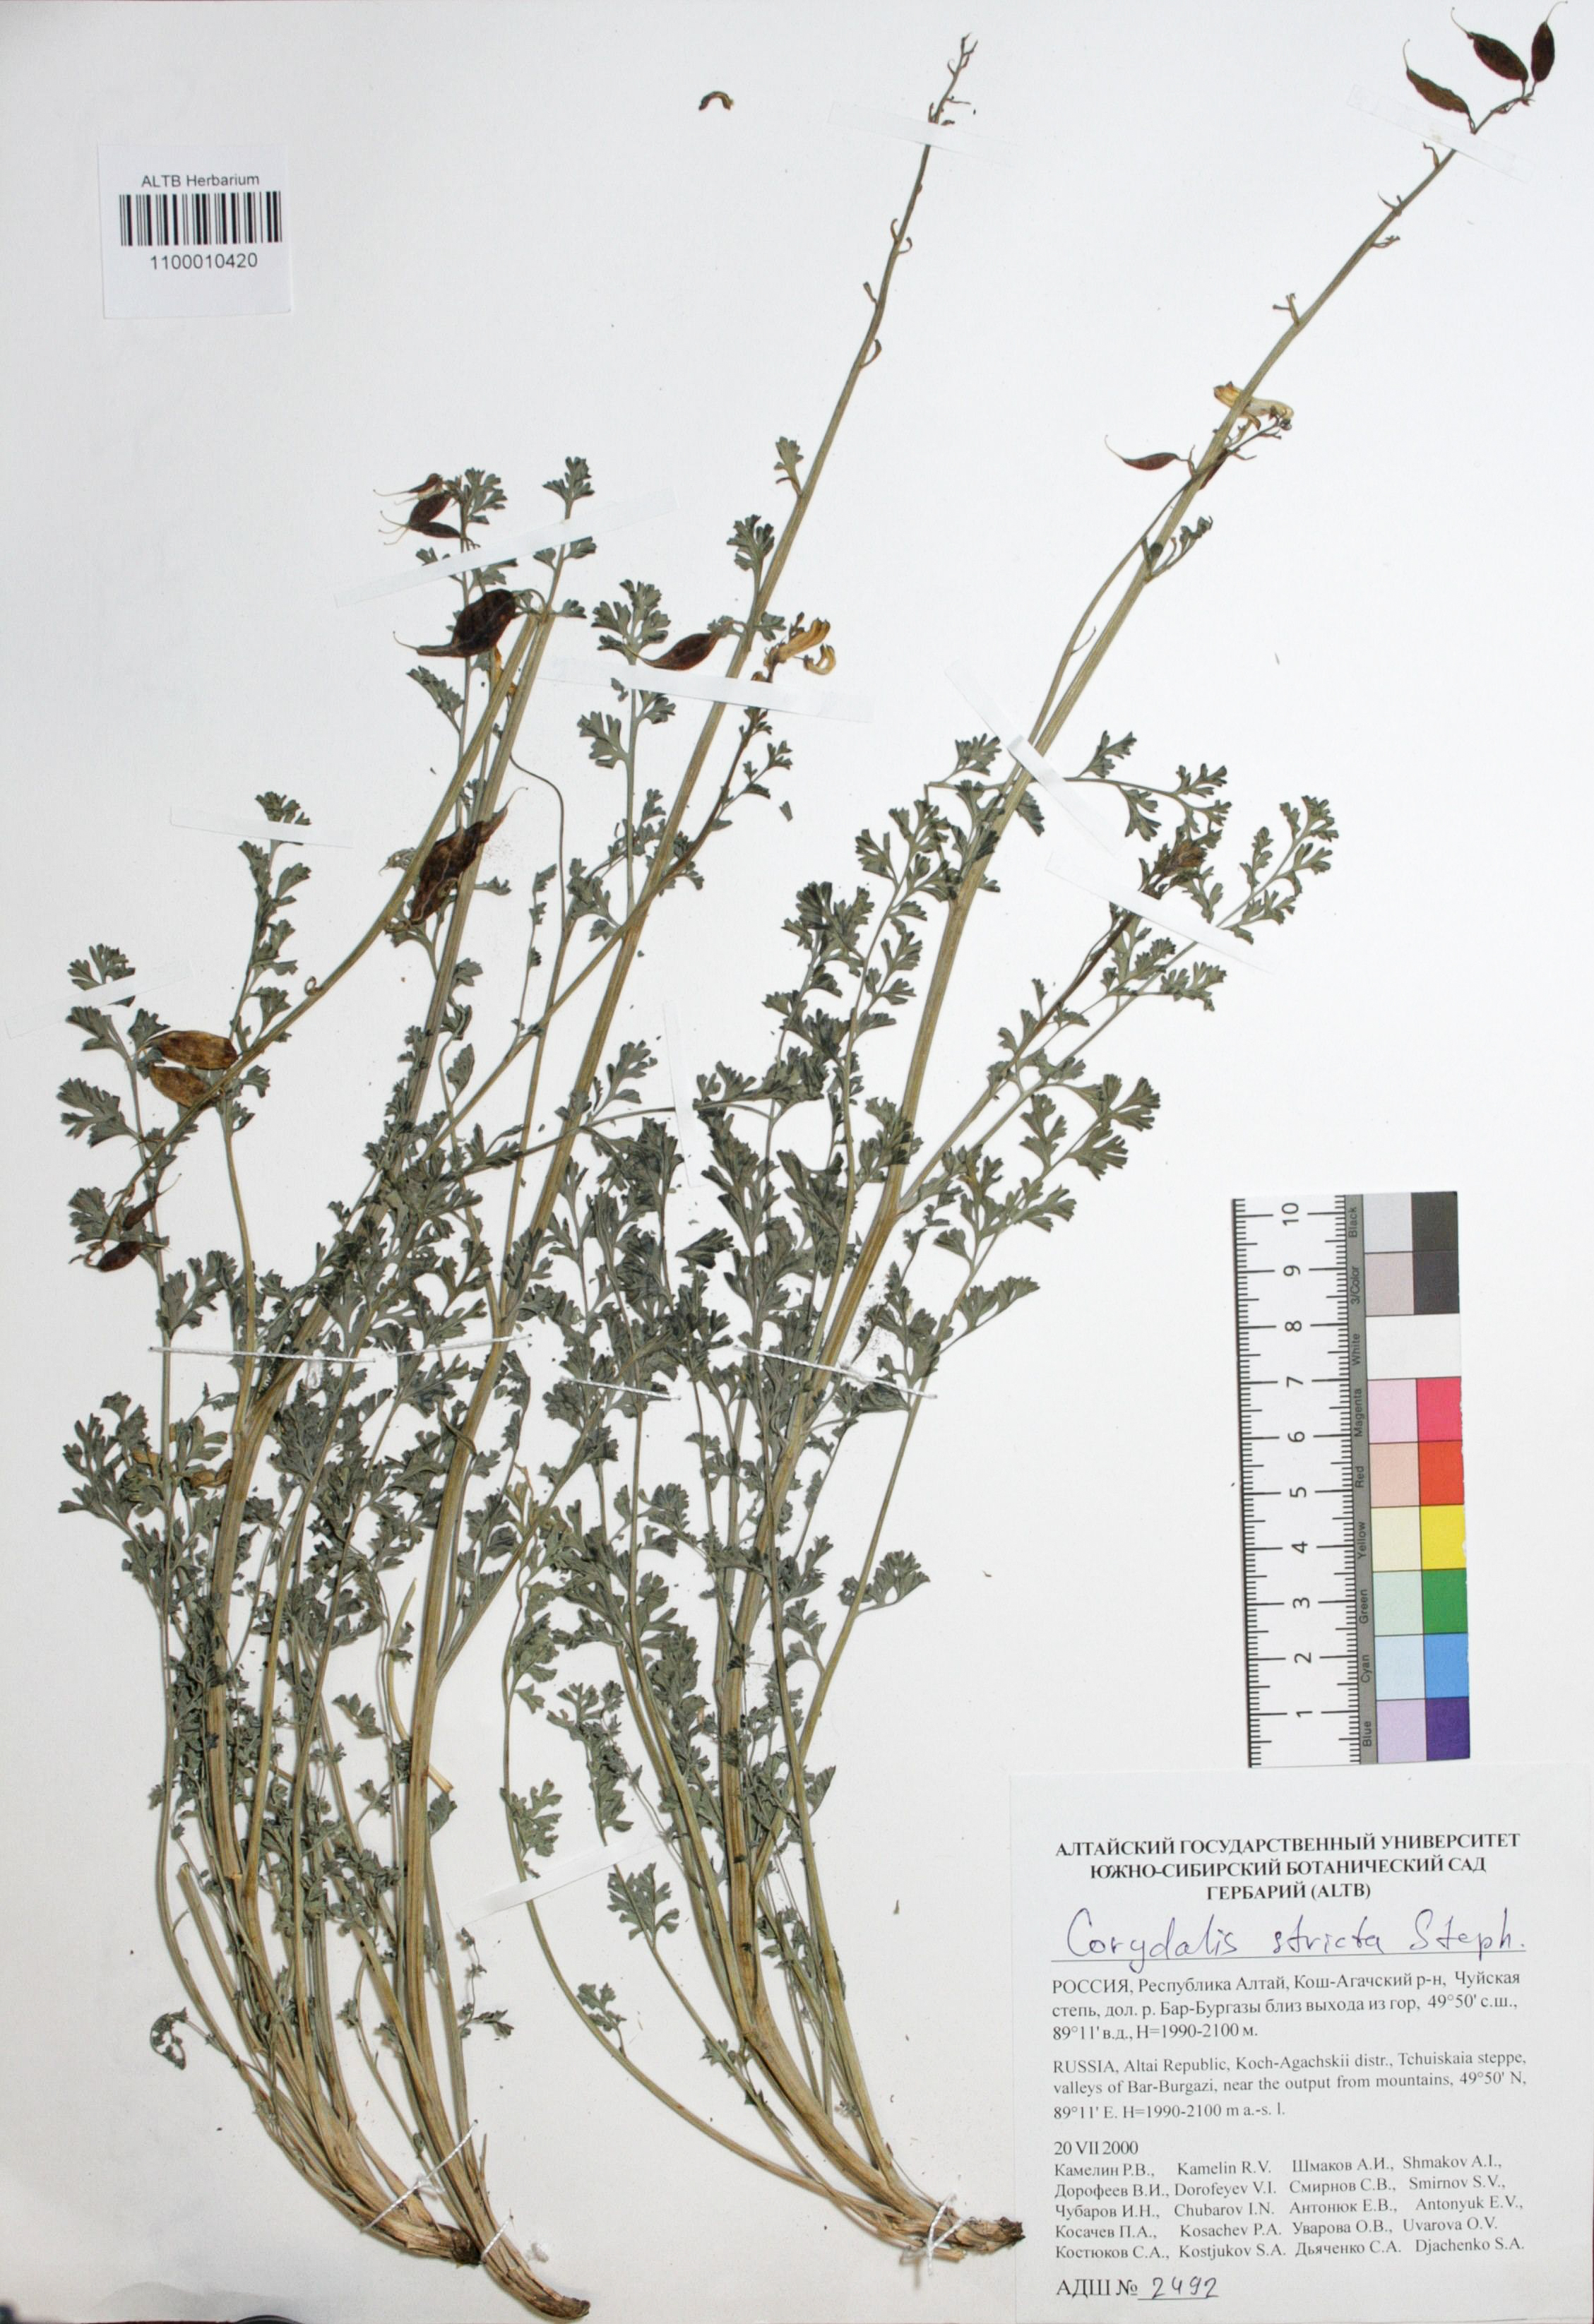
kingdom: Plantae
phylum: Tracheophyta
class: Magnoliopsida
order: Ranunculales
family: Papaveraceae
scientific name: Papaveraceae
